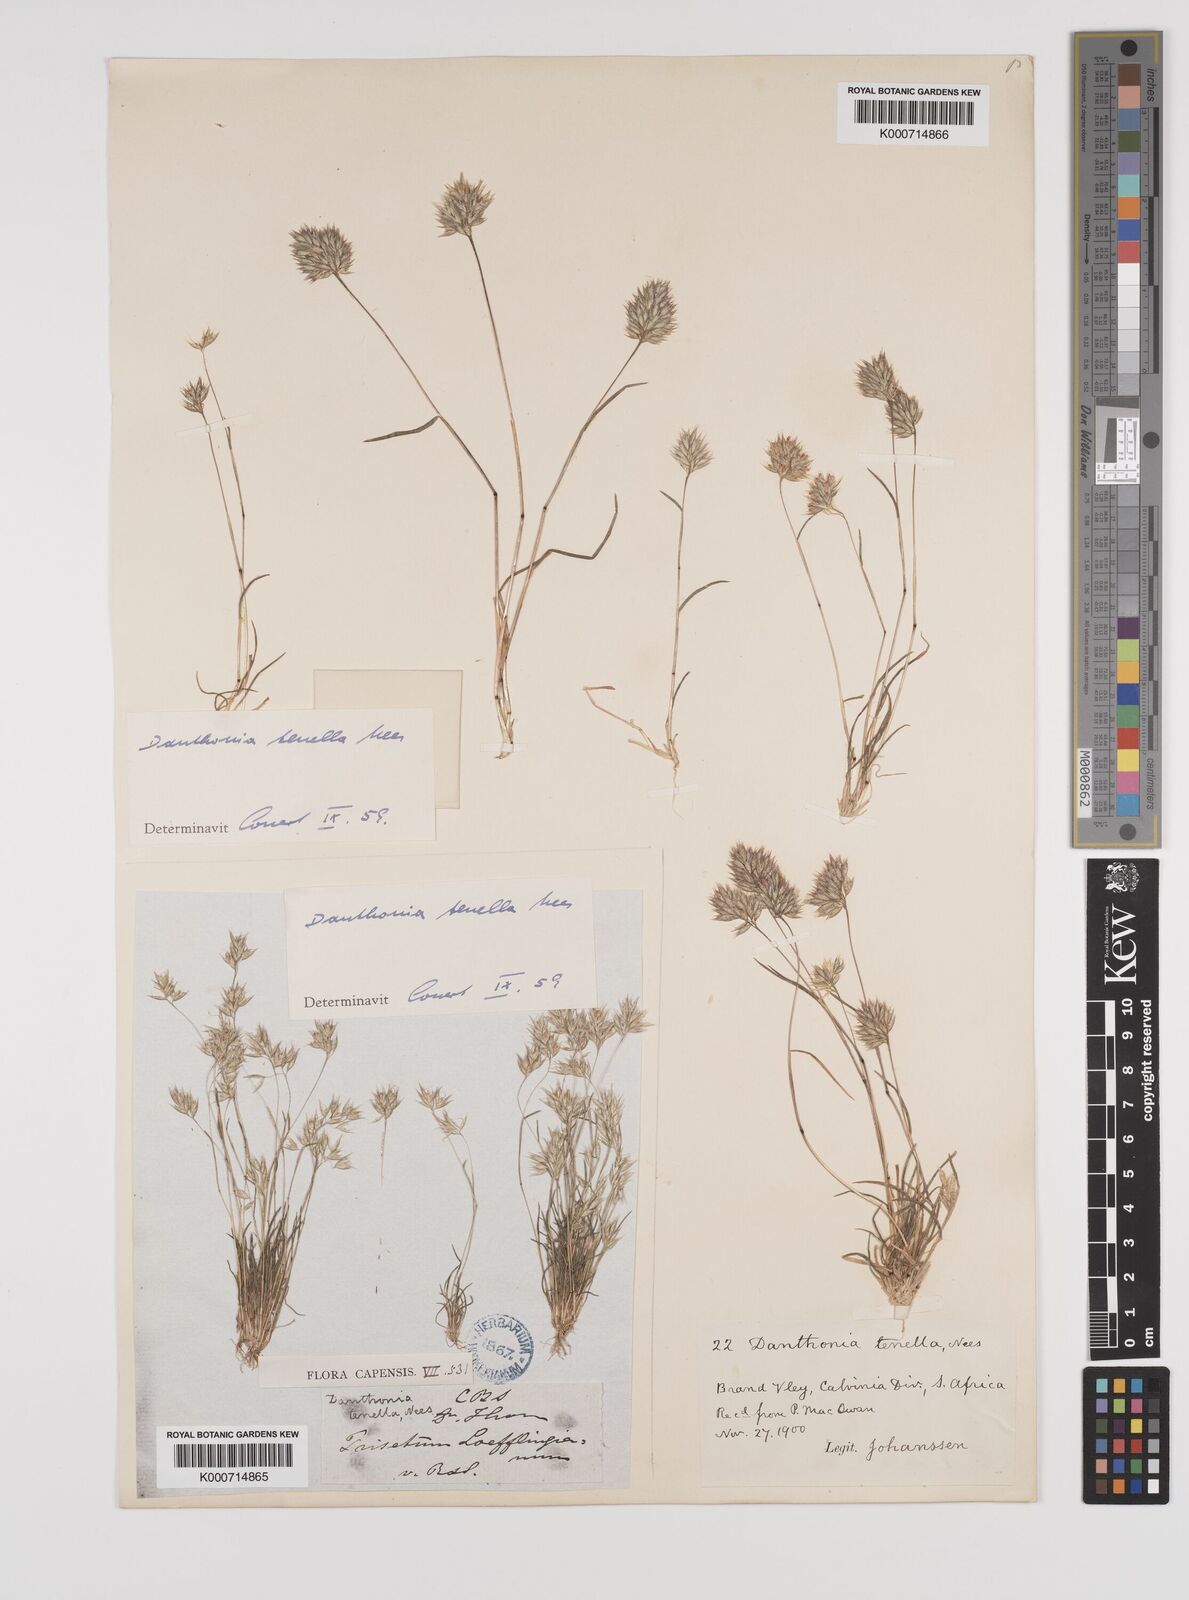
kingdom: Plantae
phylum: Tracheophyta
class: Liliopsida
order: Poales
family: Poaceae
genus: Rytidosperma
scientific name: Rytidosperma
